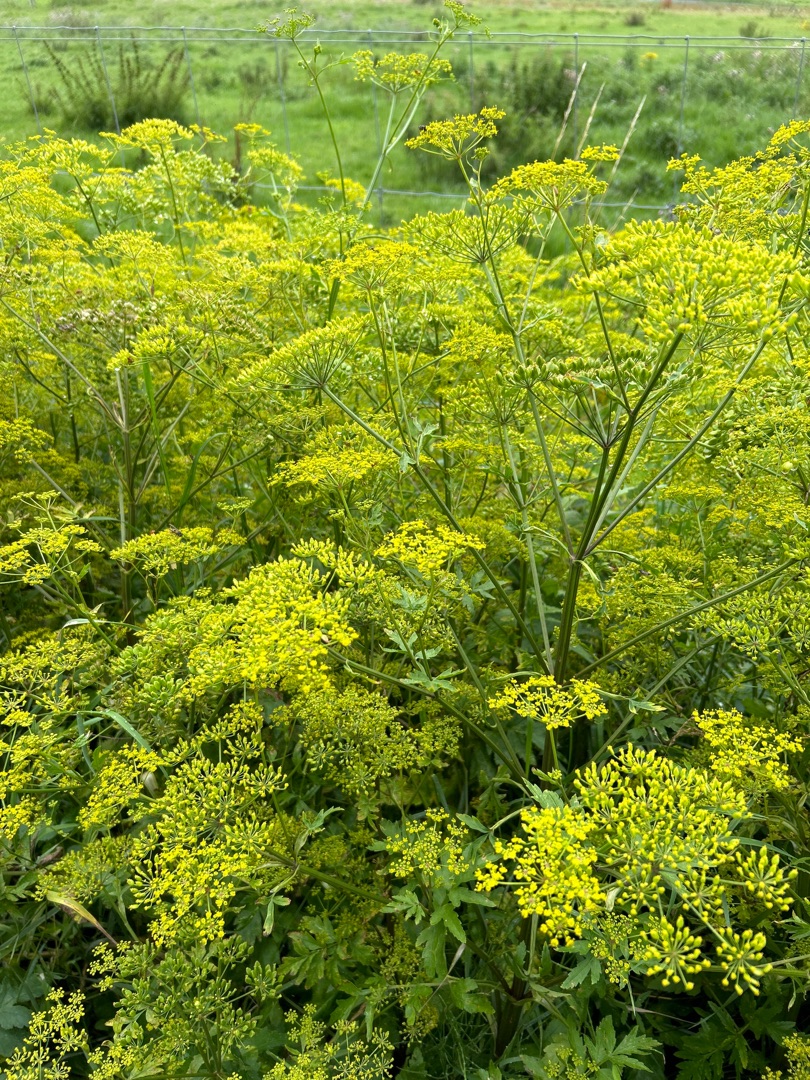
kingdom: Plantae
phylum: Tracheophyta
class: Magnoliopsida
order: Apiales
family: Apiaceae
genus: Pastinaca
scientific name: Pastinaca sativa
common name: Have-pastinak
